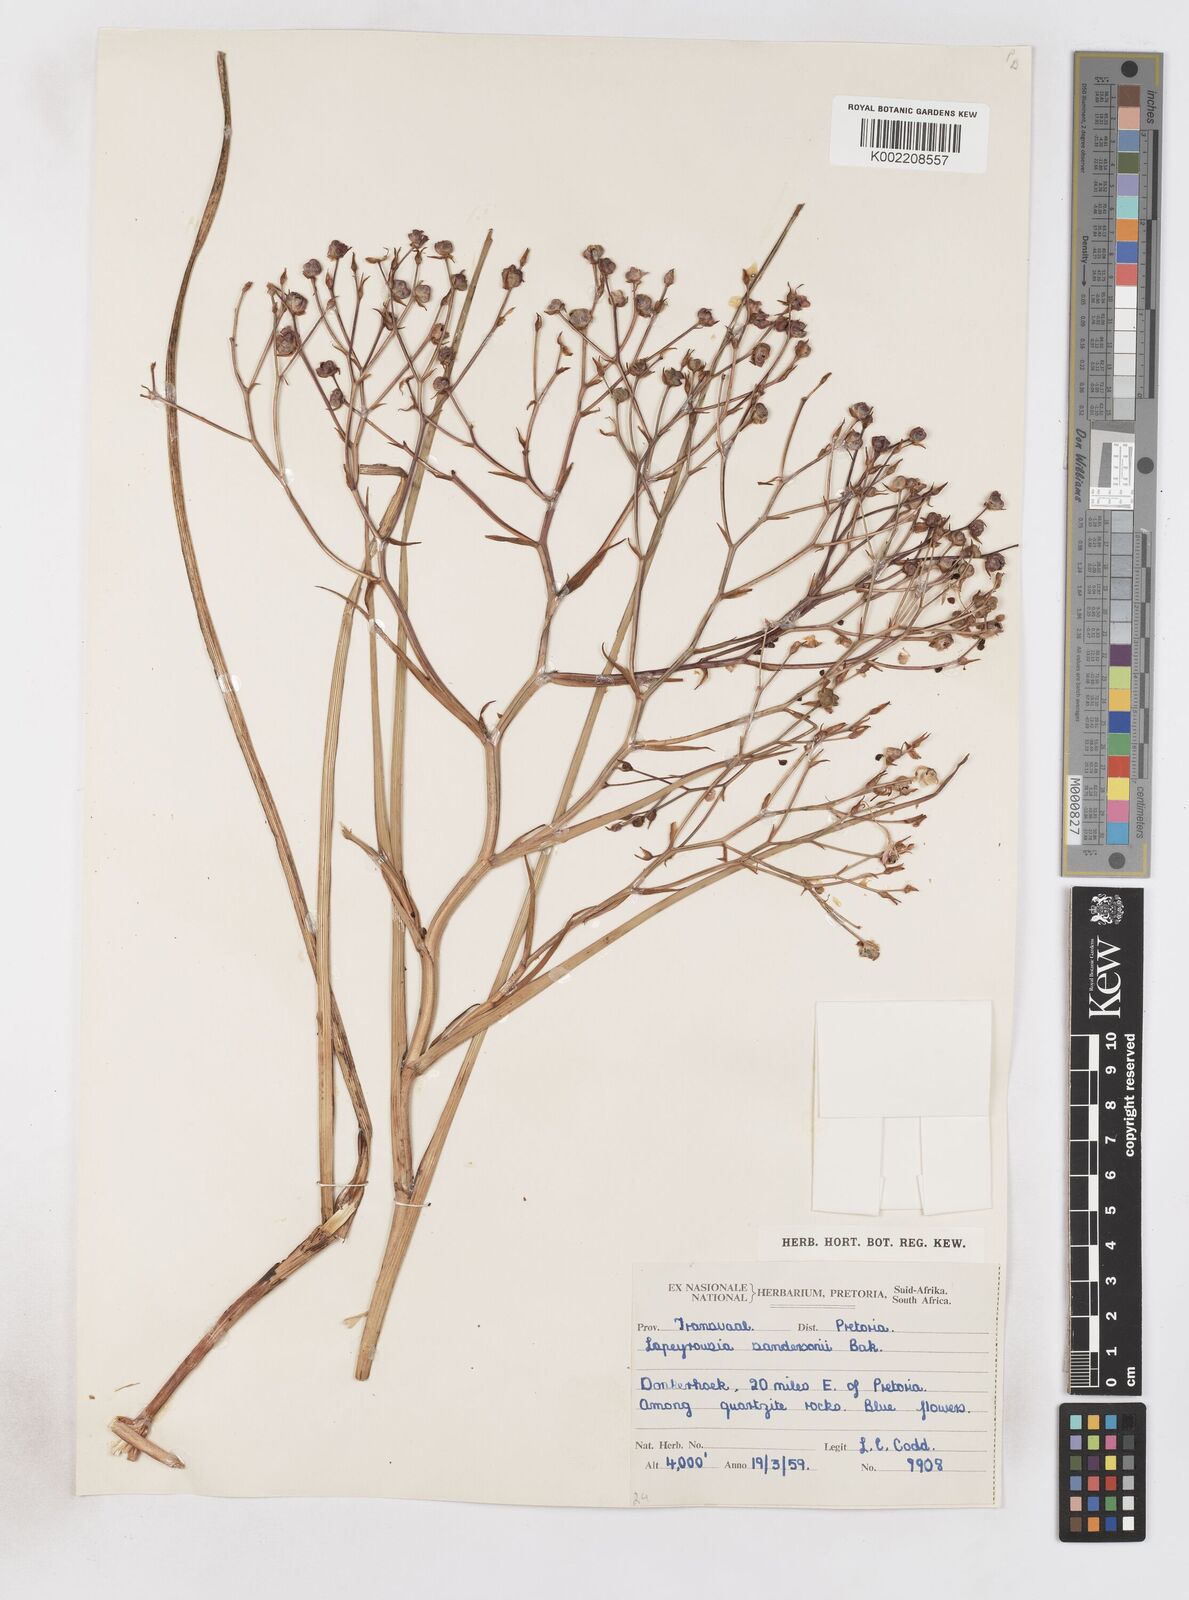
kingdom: Plantae
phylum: Tracheophyta
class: Liliopsida
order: Asparagales
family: Iridaceae
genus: Afrosolen
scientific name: Afrosolen sandersonii
